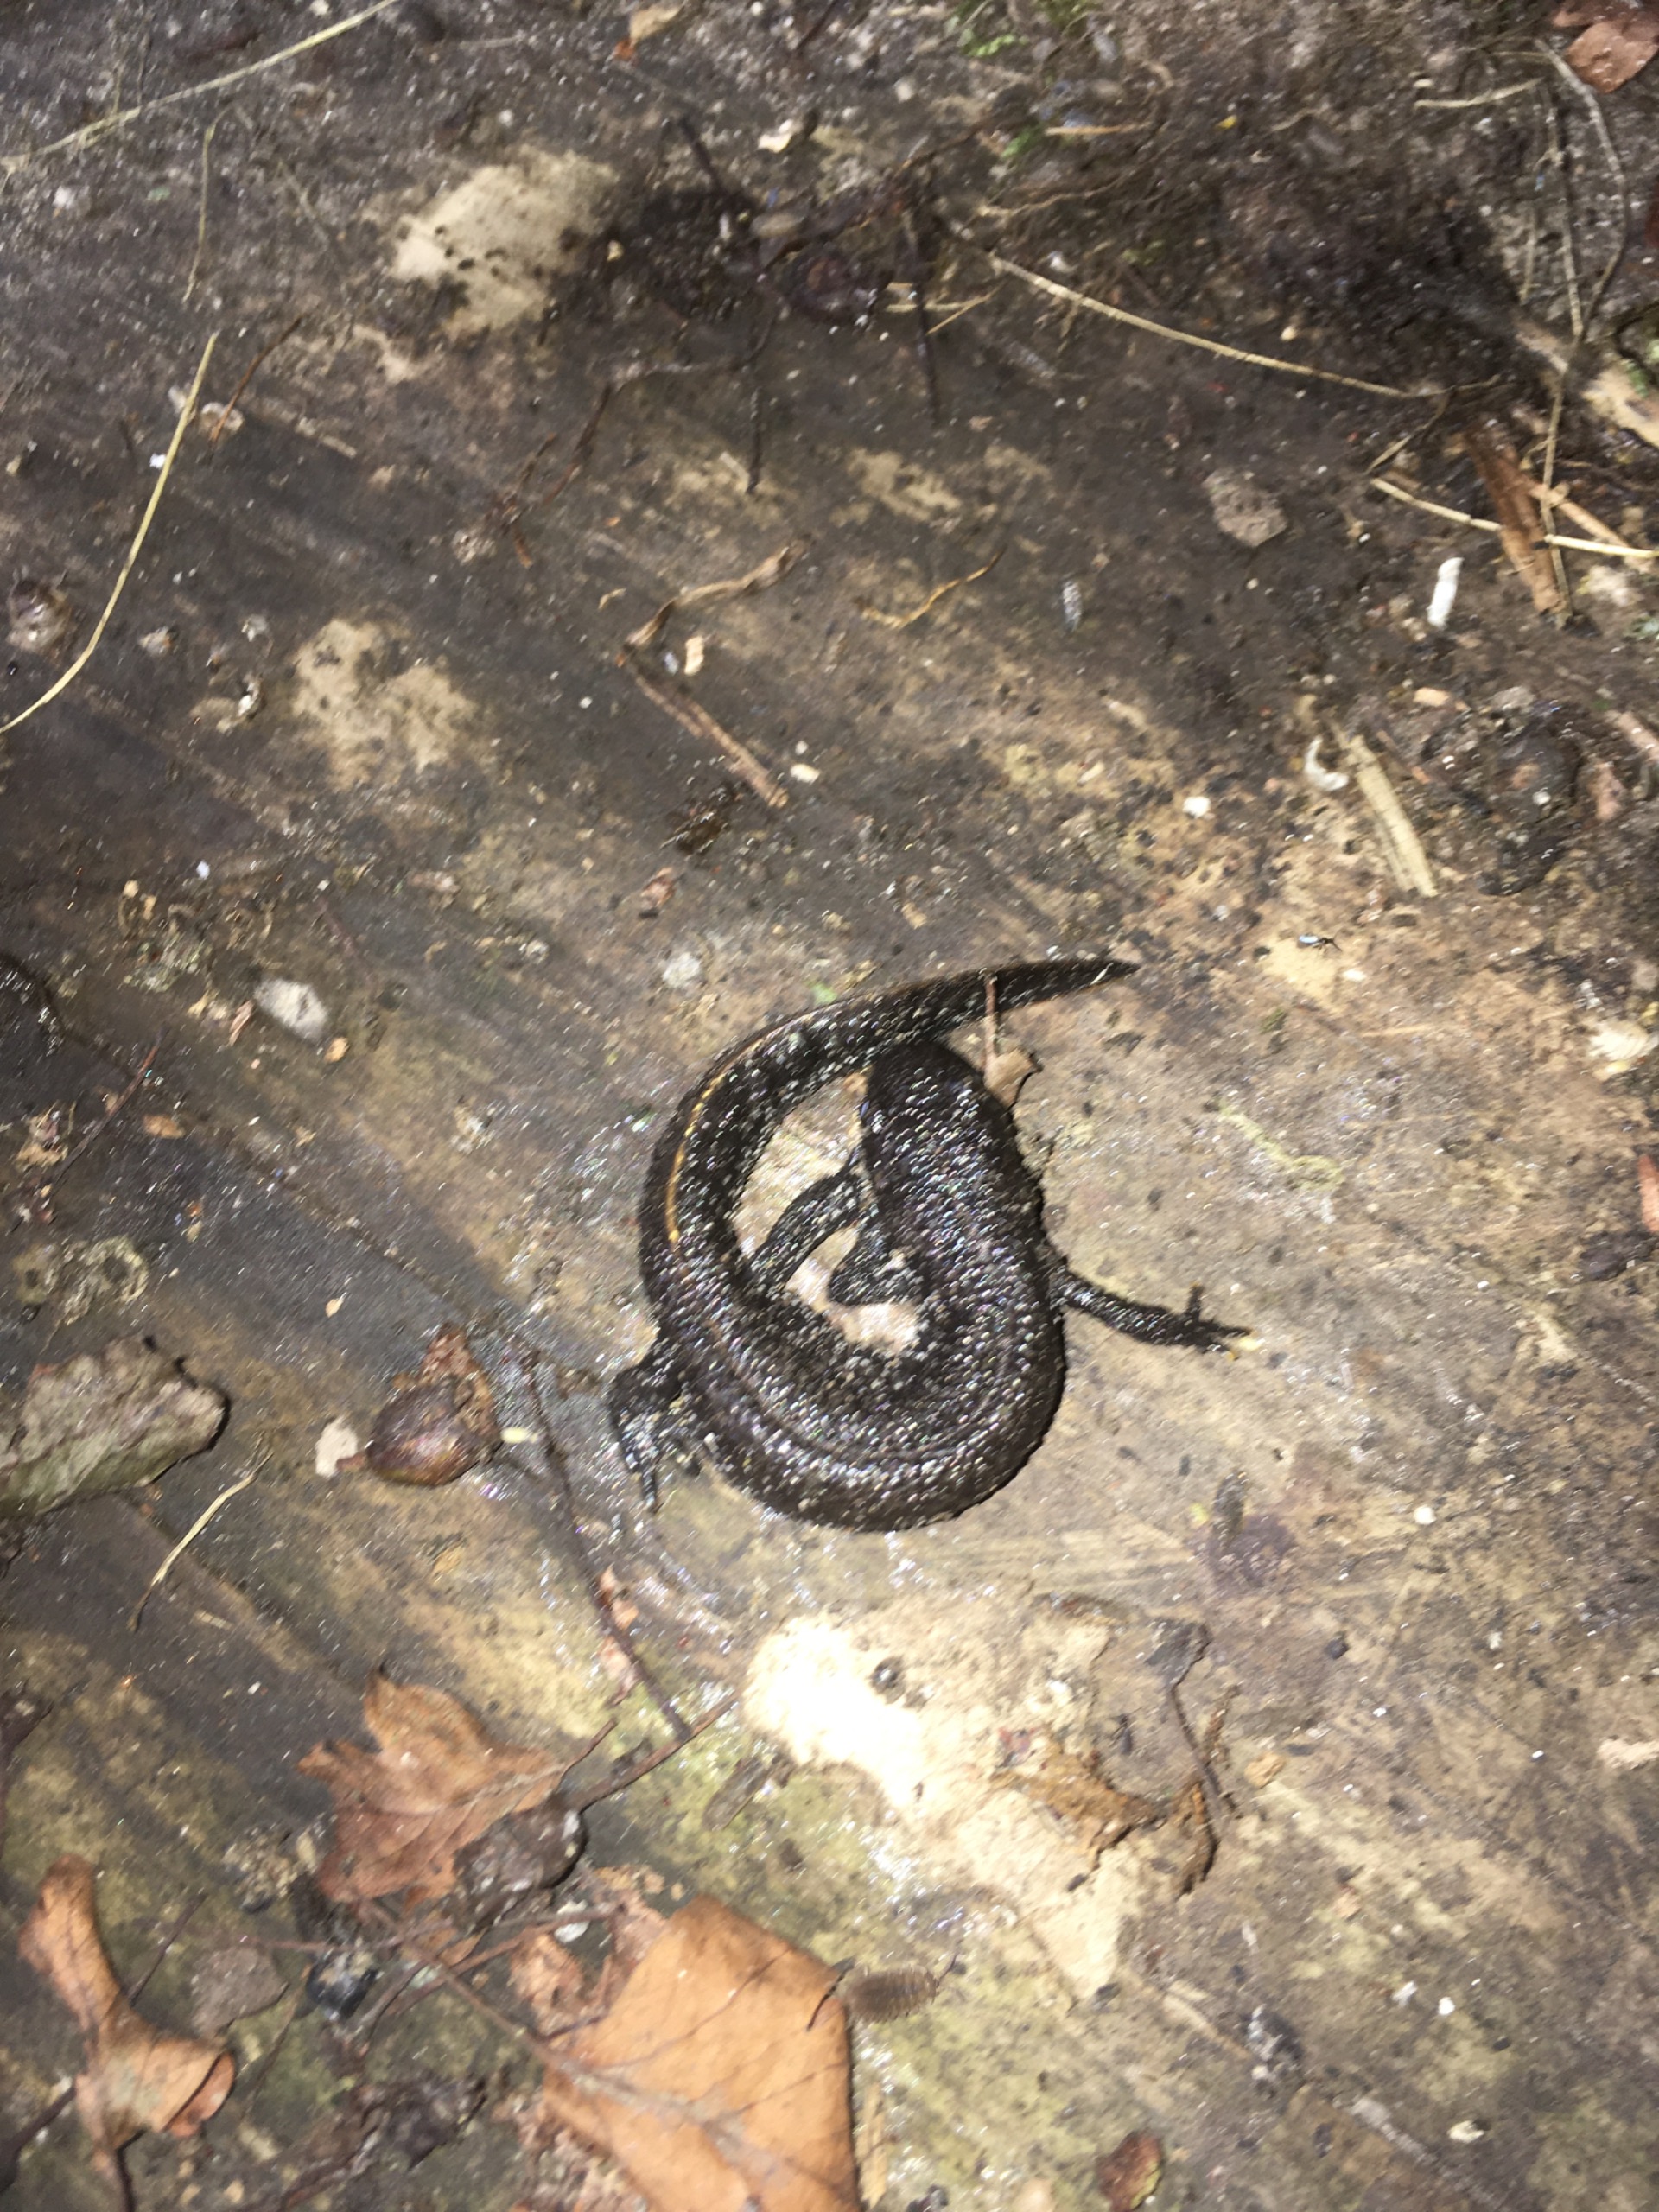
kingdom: Animalia
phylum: Chordata
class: Amphibia
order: Caudata
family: Salamandridae
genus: Triturus
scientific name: Triturus cristatus
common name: Stor vandsalamander
